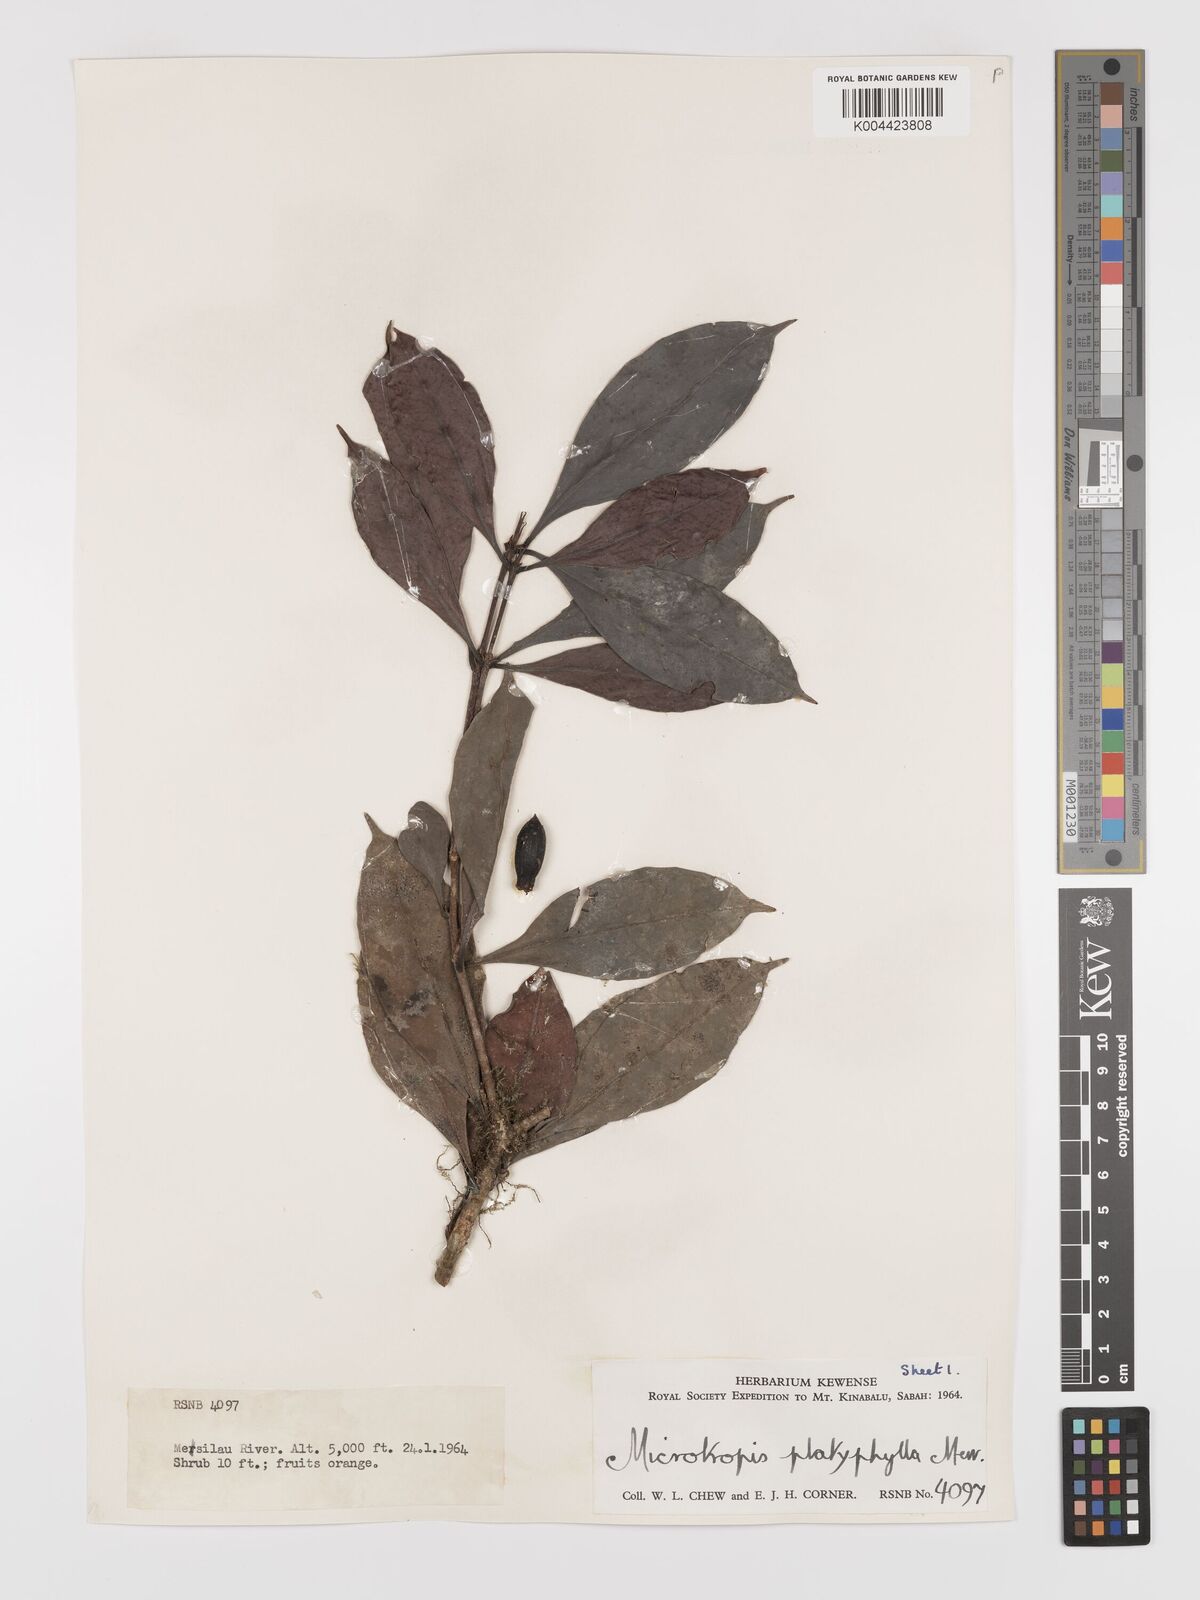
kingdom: Plantae
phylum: Tracheophyta
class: Magnoliopsida
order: Celastrales
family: Celastraceae
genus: Microtropis
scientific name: Microtropis platyphylla
